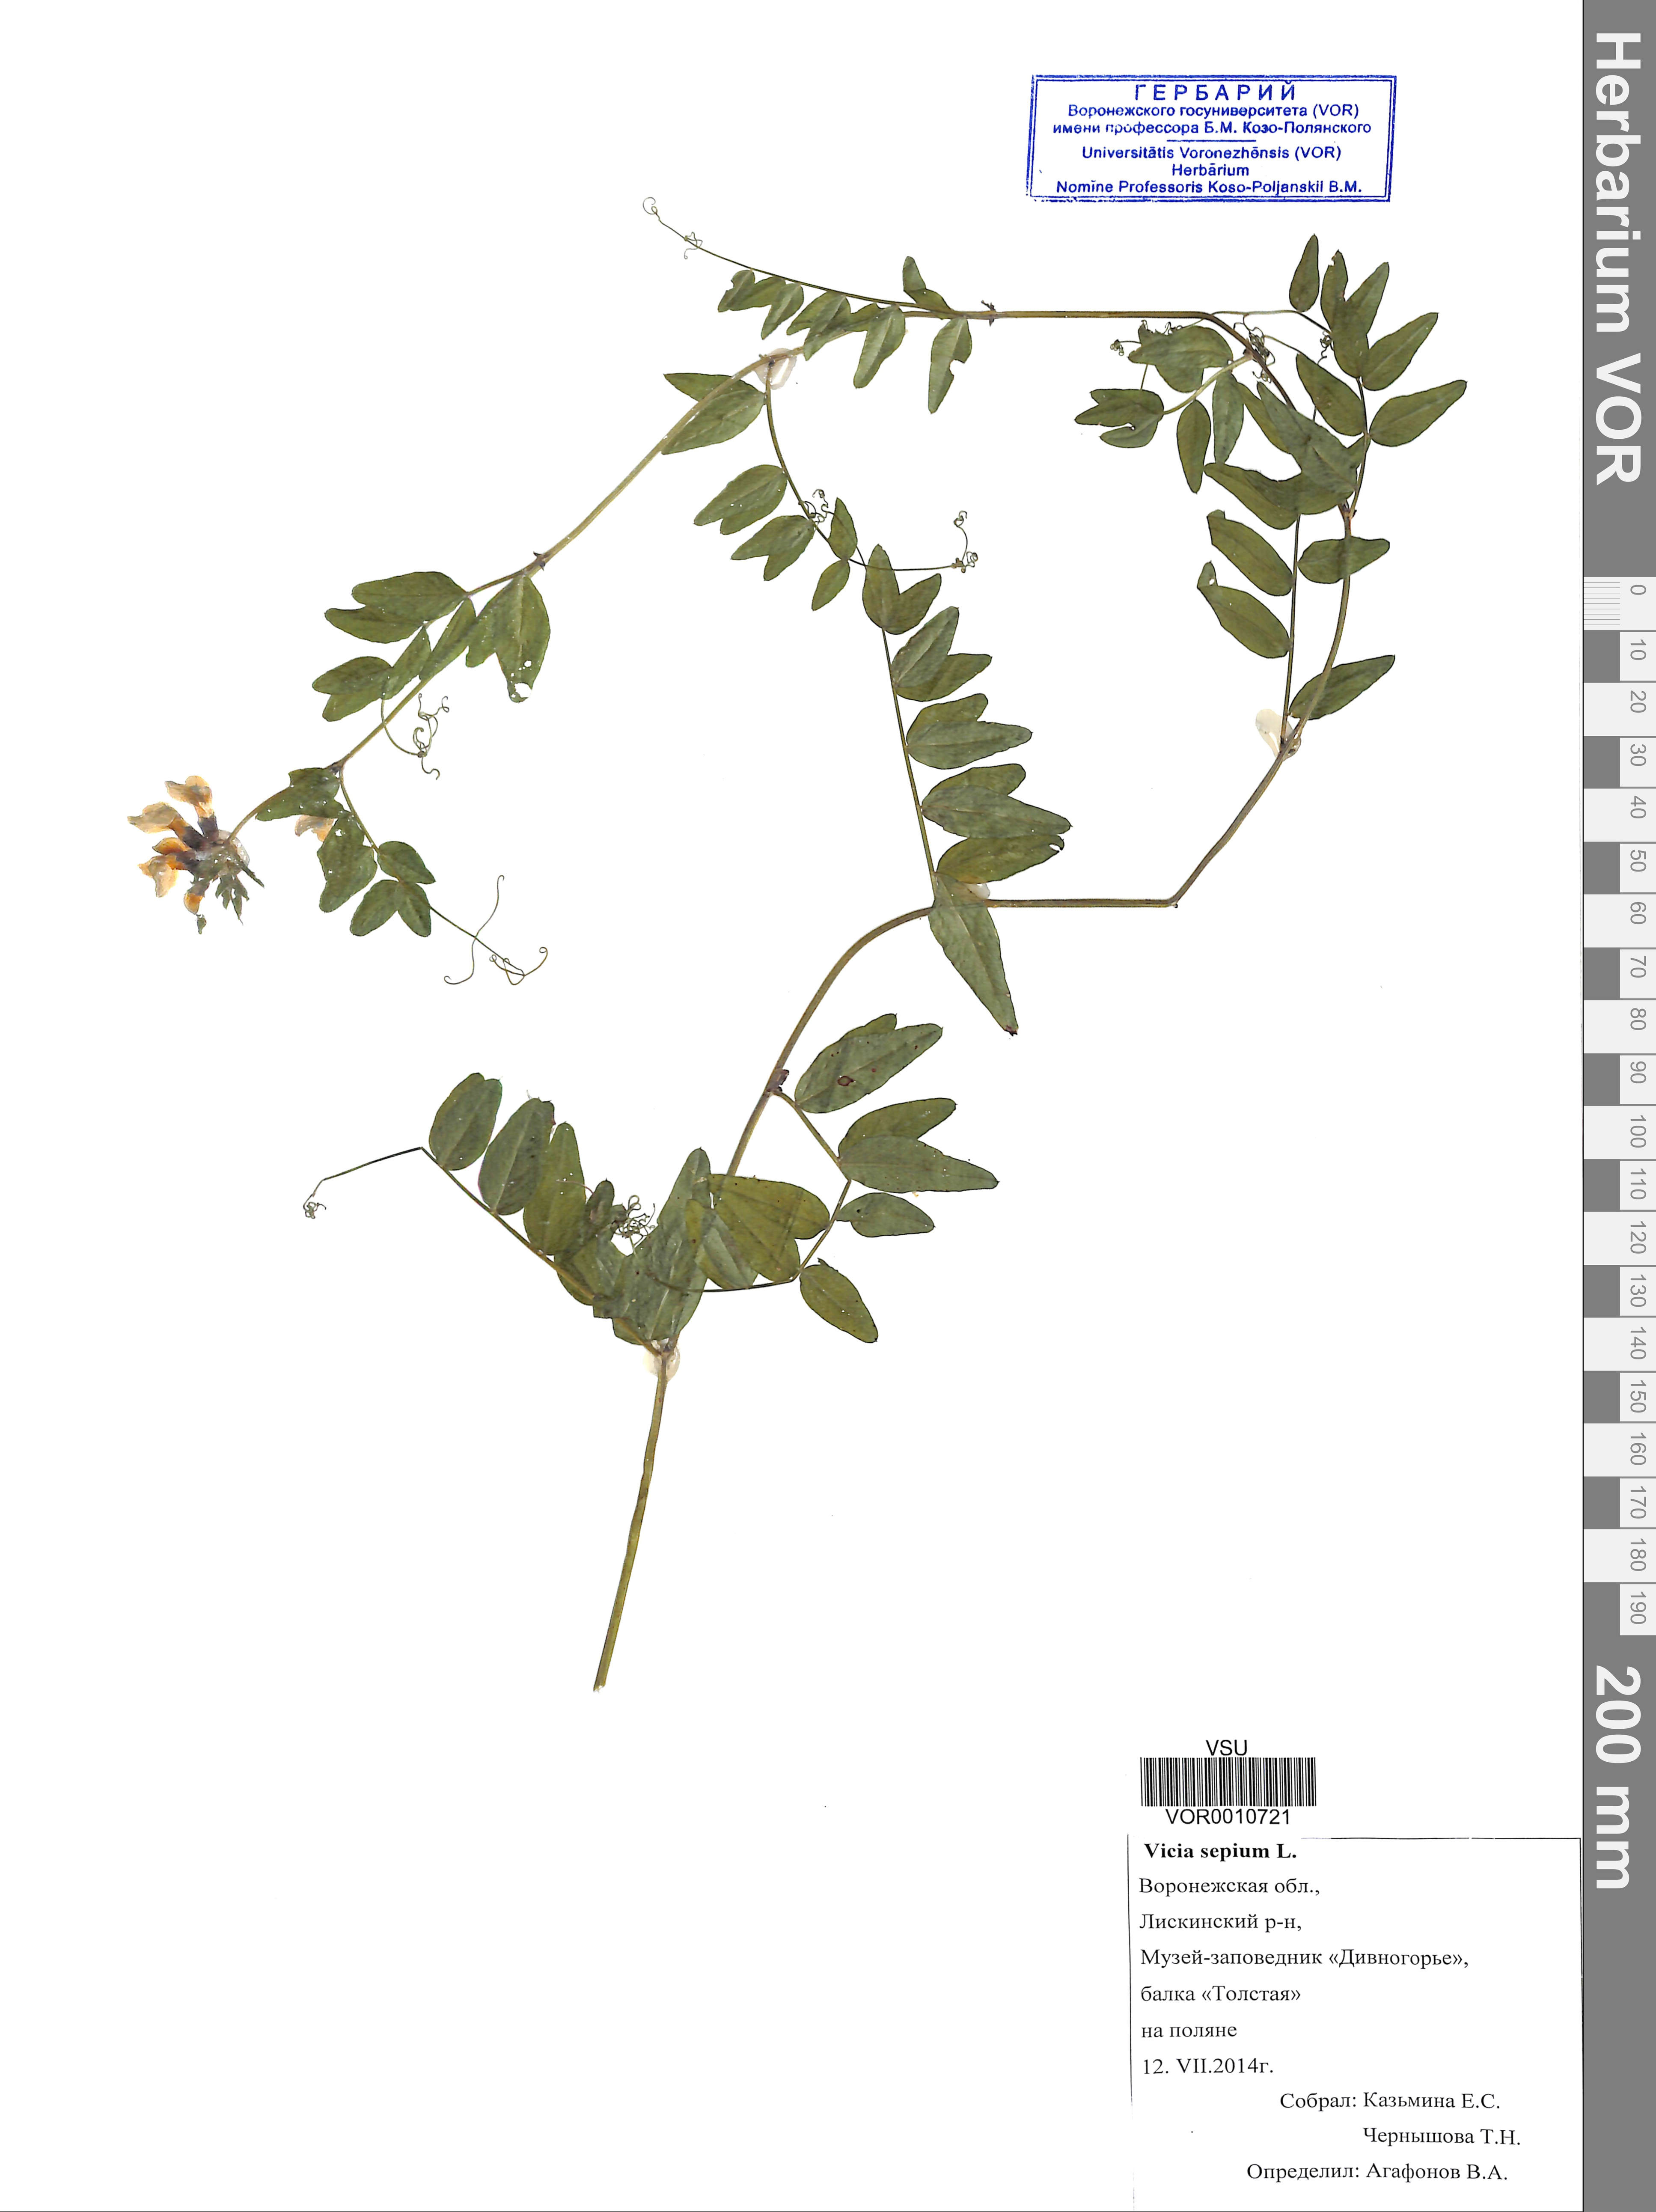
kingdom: Plantae
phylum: Tracheophyta
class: Magnoliopsida
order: Fabales
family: Fabaceae
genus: Vicia
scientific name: Vicia sepium
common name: Bush vetch
